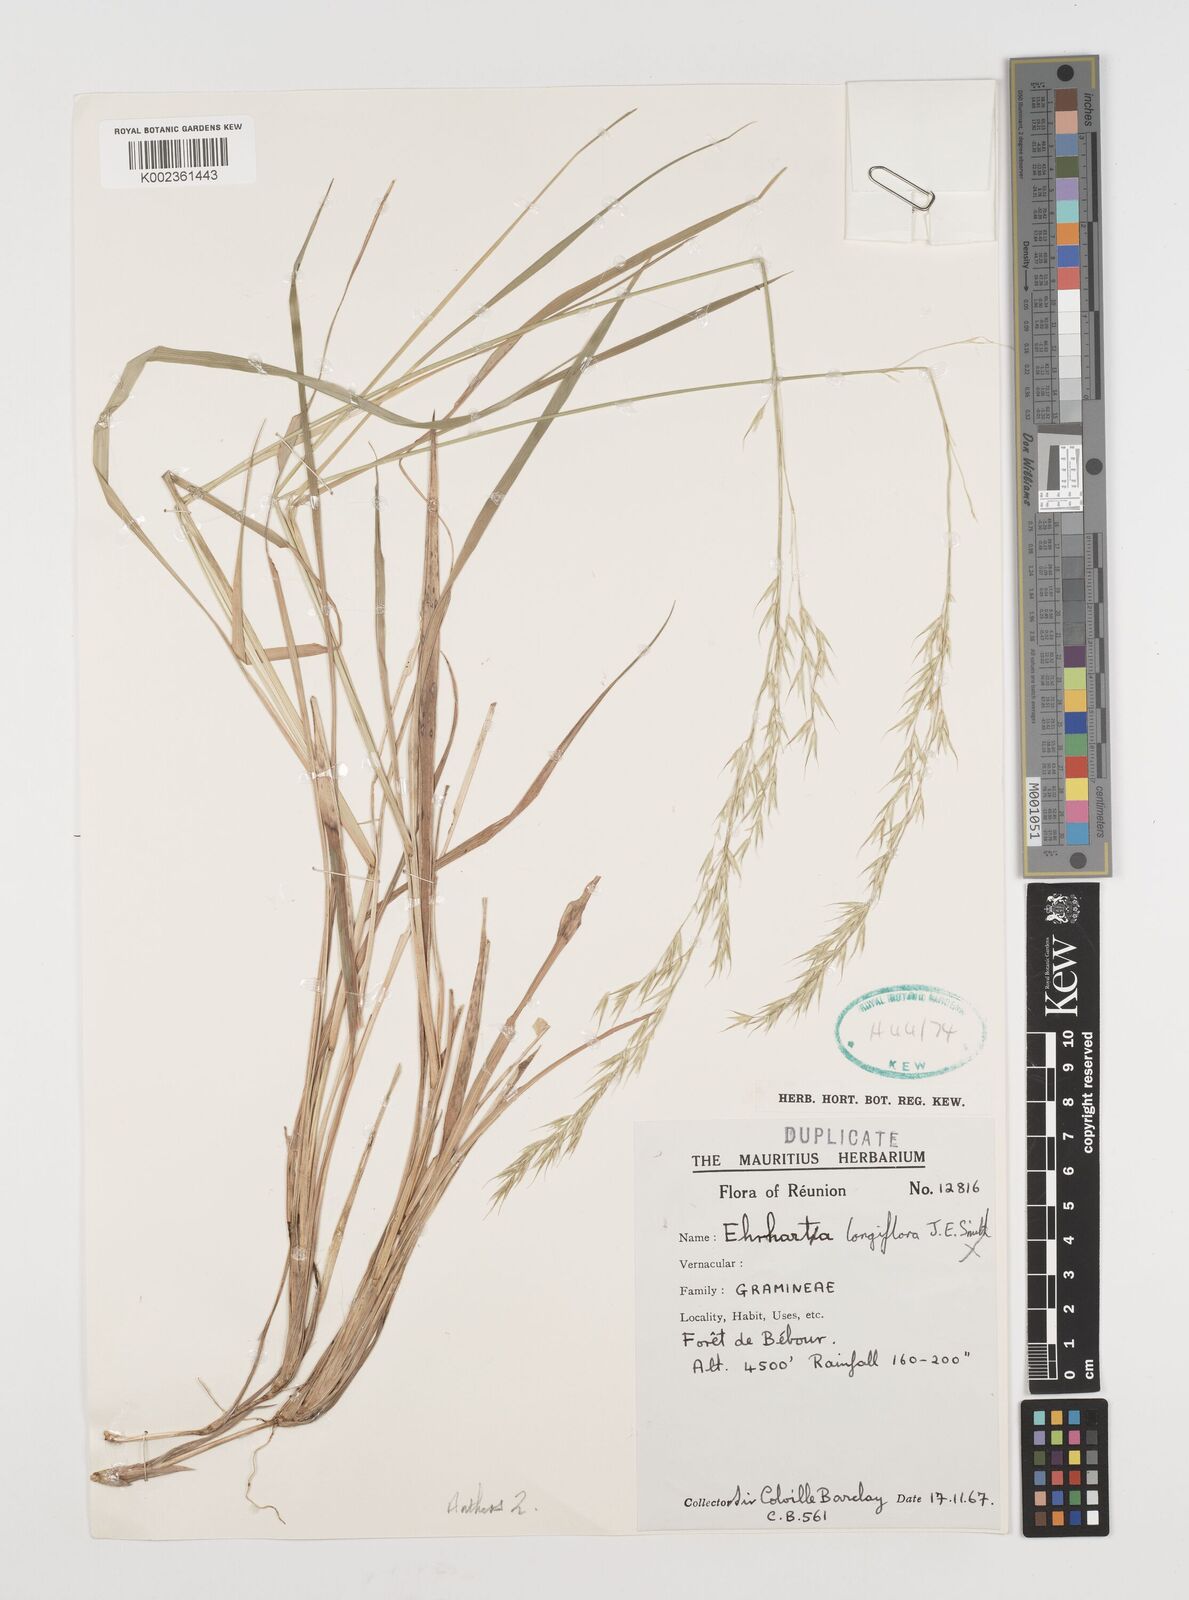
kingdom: Plantae
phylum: Tracheophyta
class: Liliopsida
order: Poales
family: Poaceae
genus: Ehrharta
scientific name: Ehrharta
